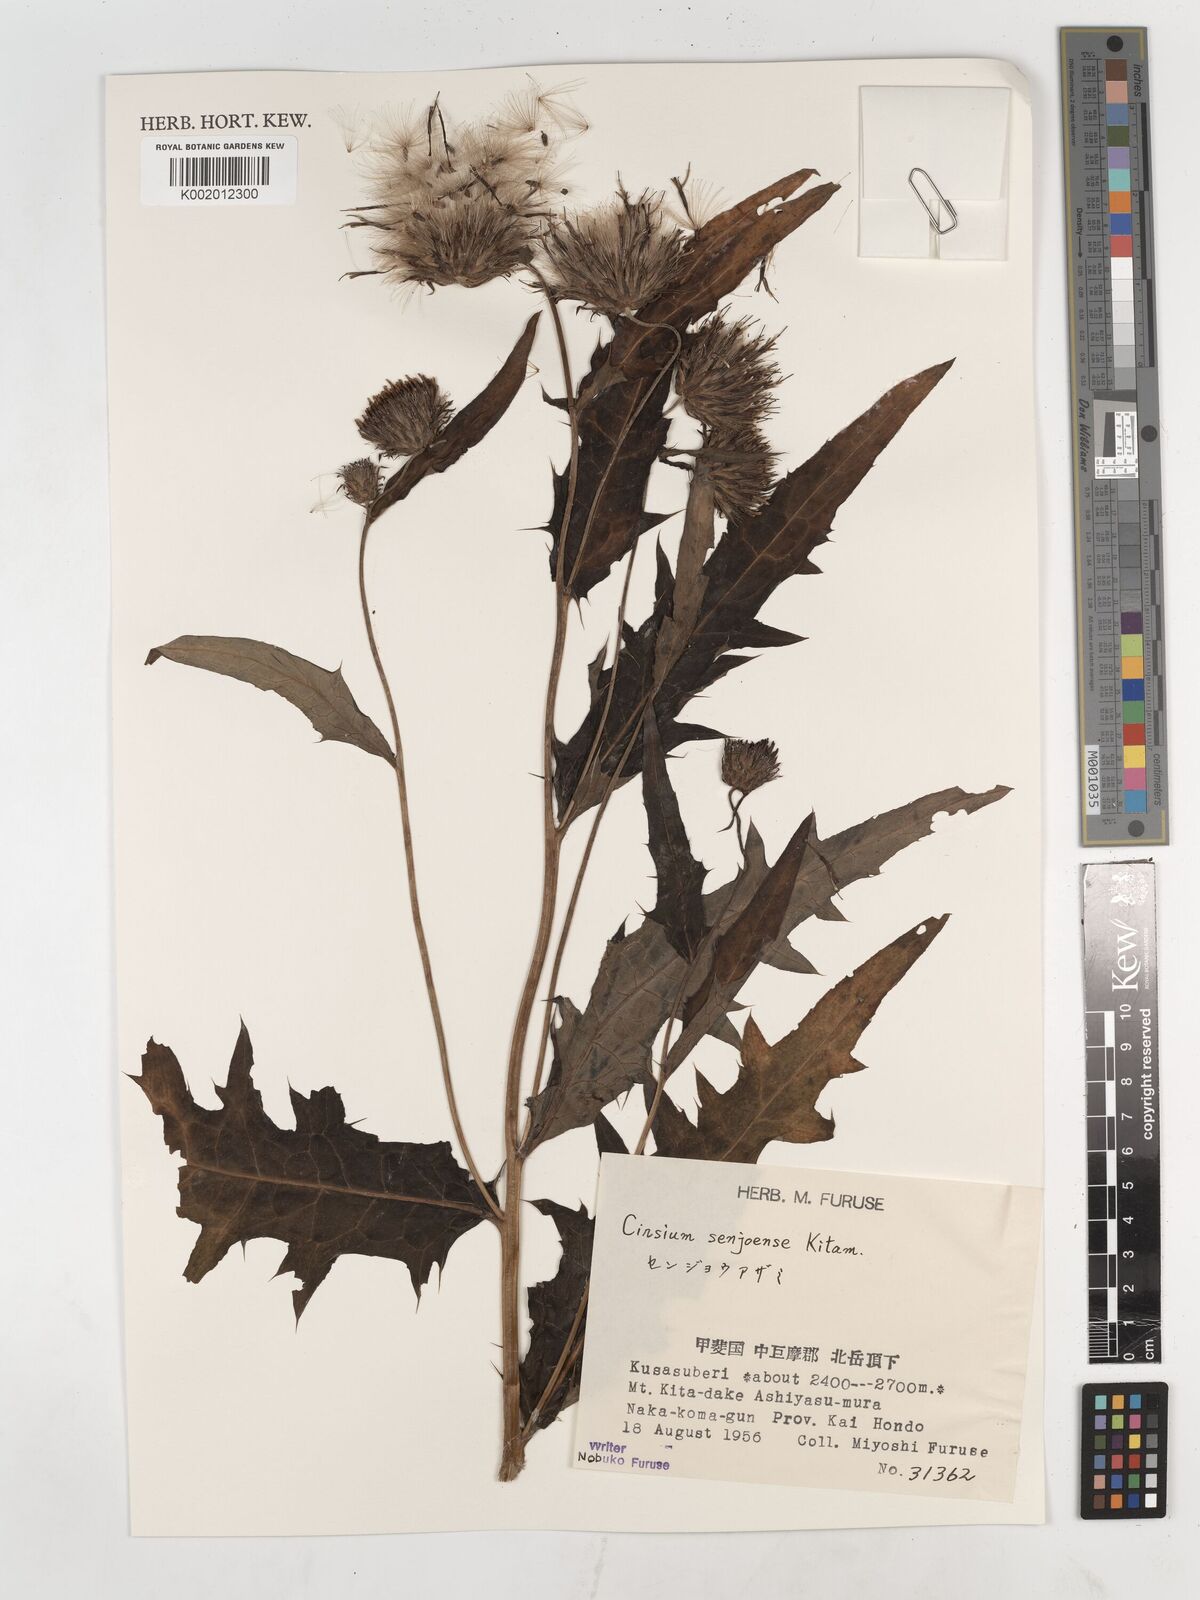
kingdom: Plantae
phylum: Tracheophyta
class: Magnoliopsida
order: Asterales
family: Asteraceae
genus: Cirsium
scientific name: Cirsium senjoense
